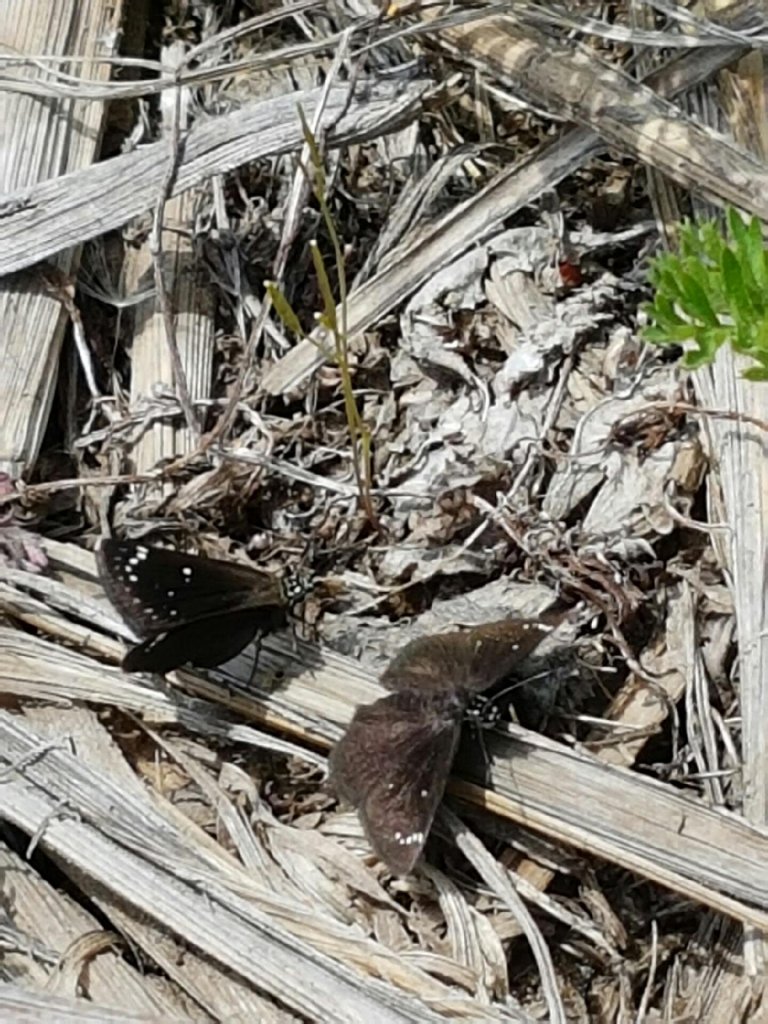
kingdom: Animalia
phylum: Arthropoda
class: Insecta
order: Lepidoptera
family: Hesperiidae
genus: Pholisora
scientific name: Pholisora catullus
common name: Common Sootywing
